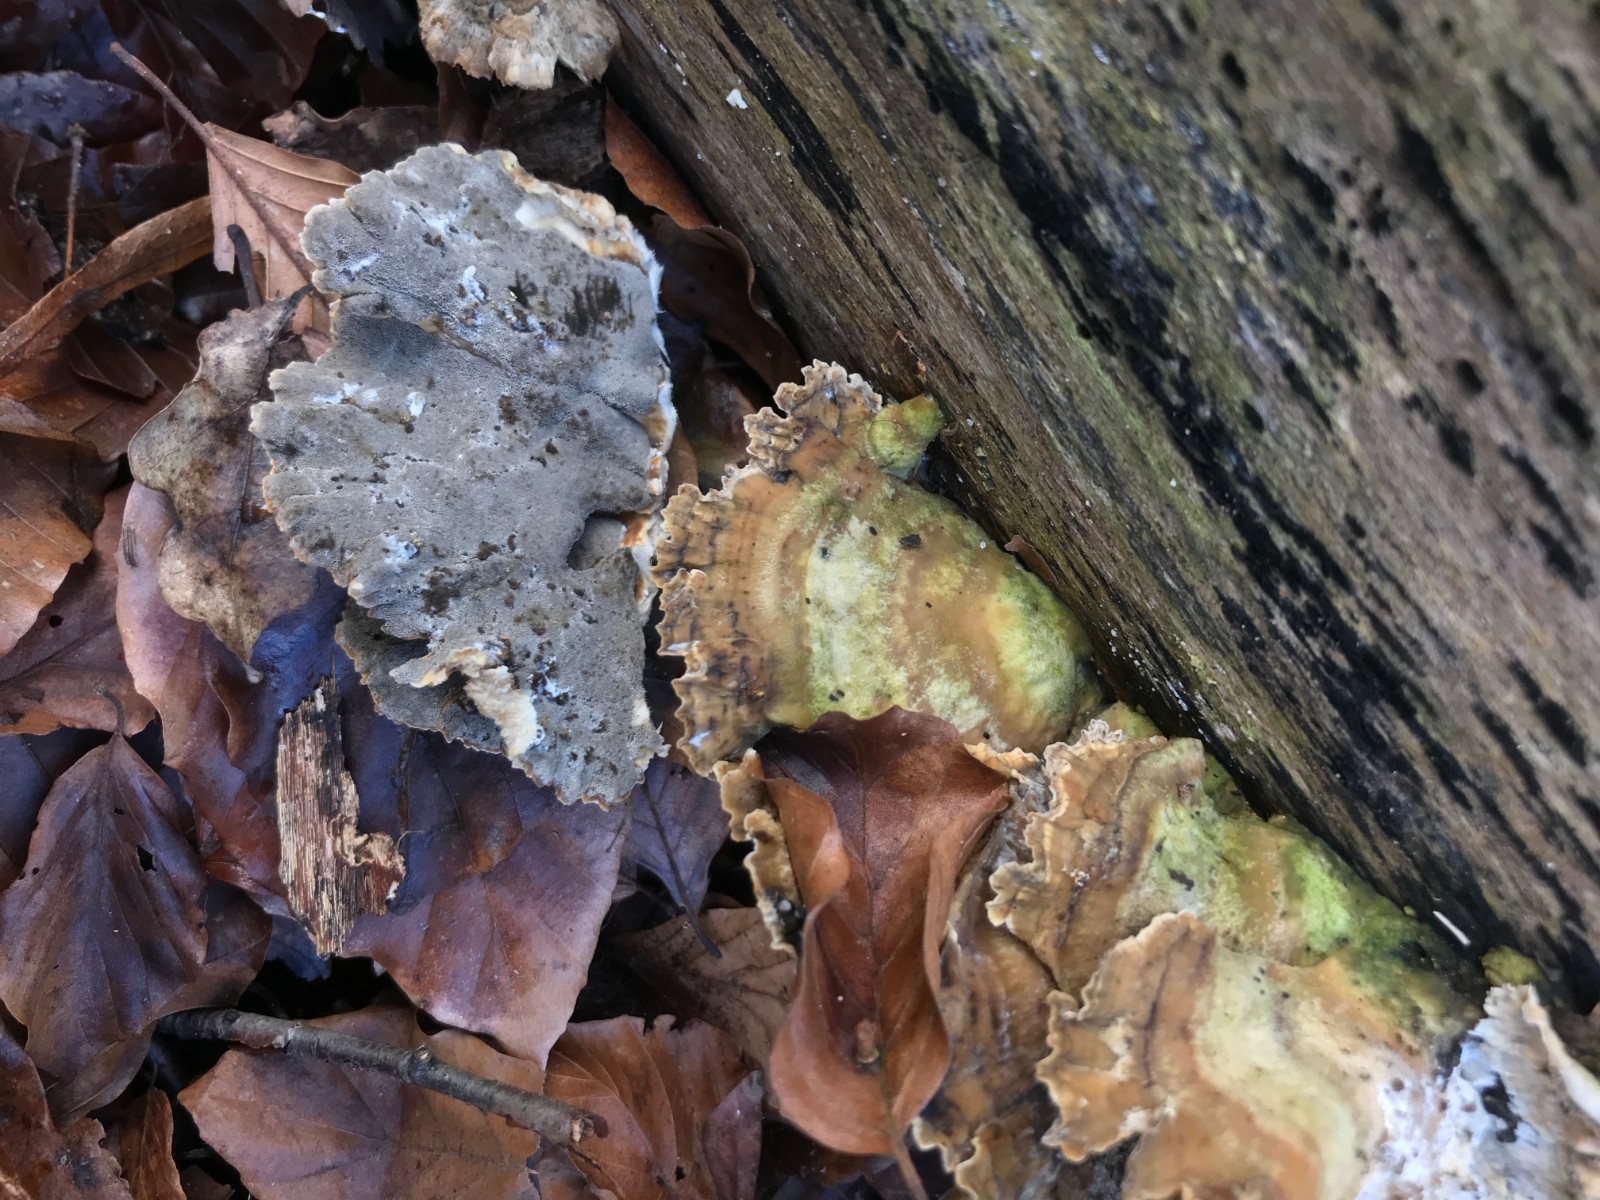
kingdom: Fungi
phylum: Basidiomycota
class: Agaricomycetes
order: Polyporales
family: Phanerochaetaceae
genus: Bjerkandera
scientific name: Bjerkandera adusta
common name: sveden sodporesvamp
